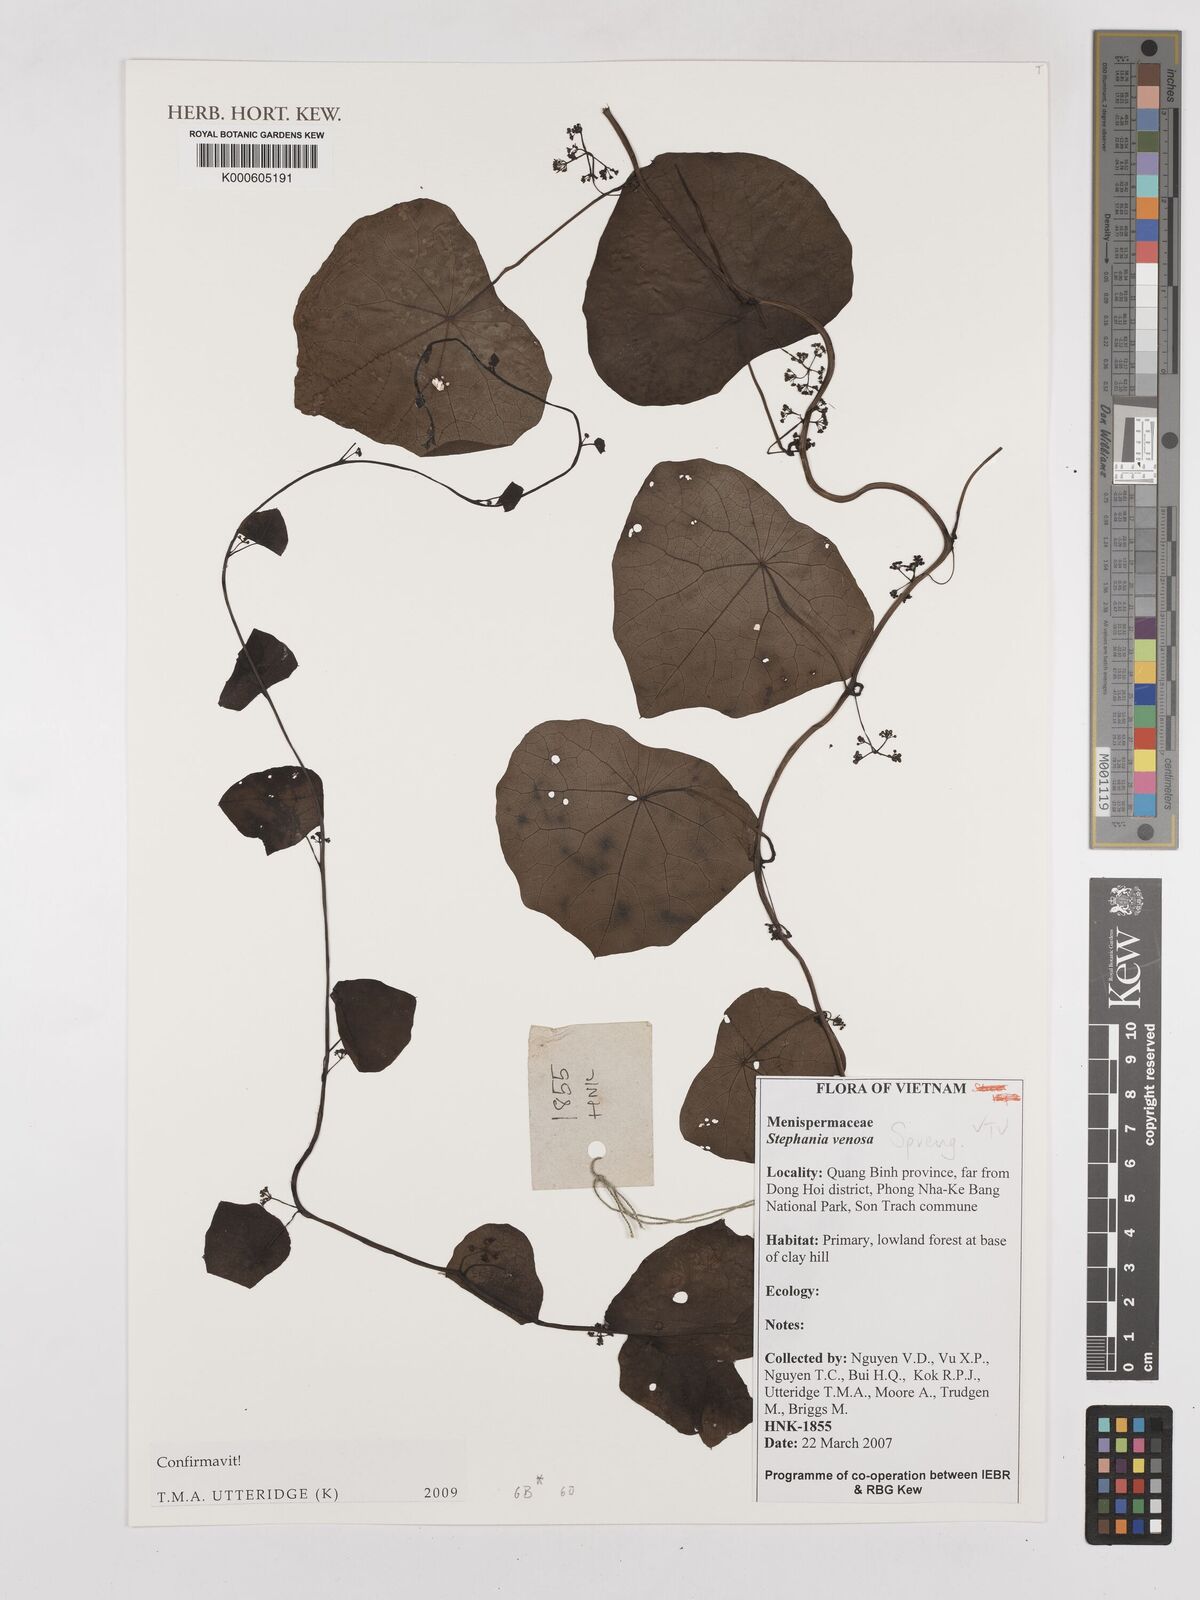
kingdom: Plantae
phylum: Tracheophyta
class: Magnoliopsida
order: Ranunculales
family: Menispermaceae
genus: Stephania
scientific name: Stephania venosa
